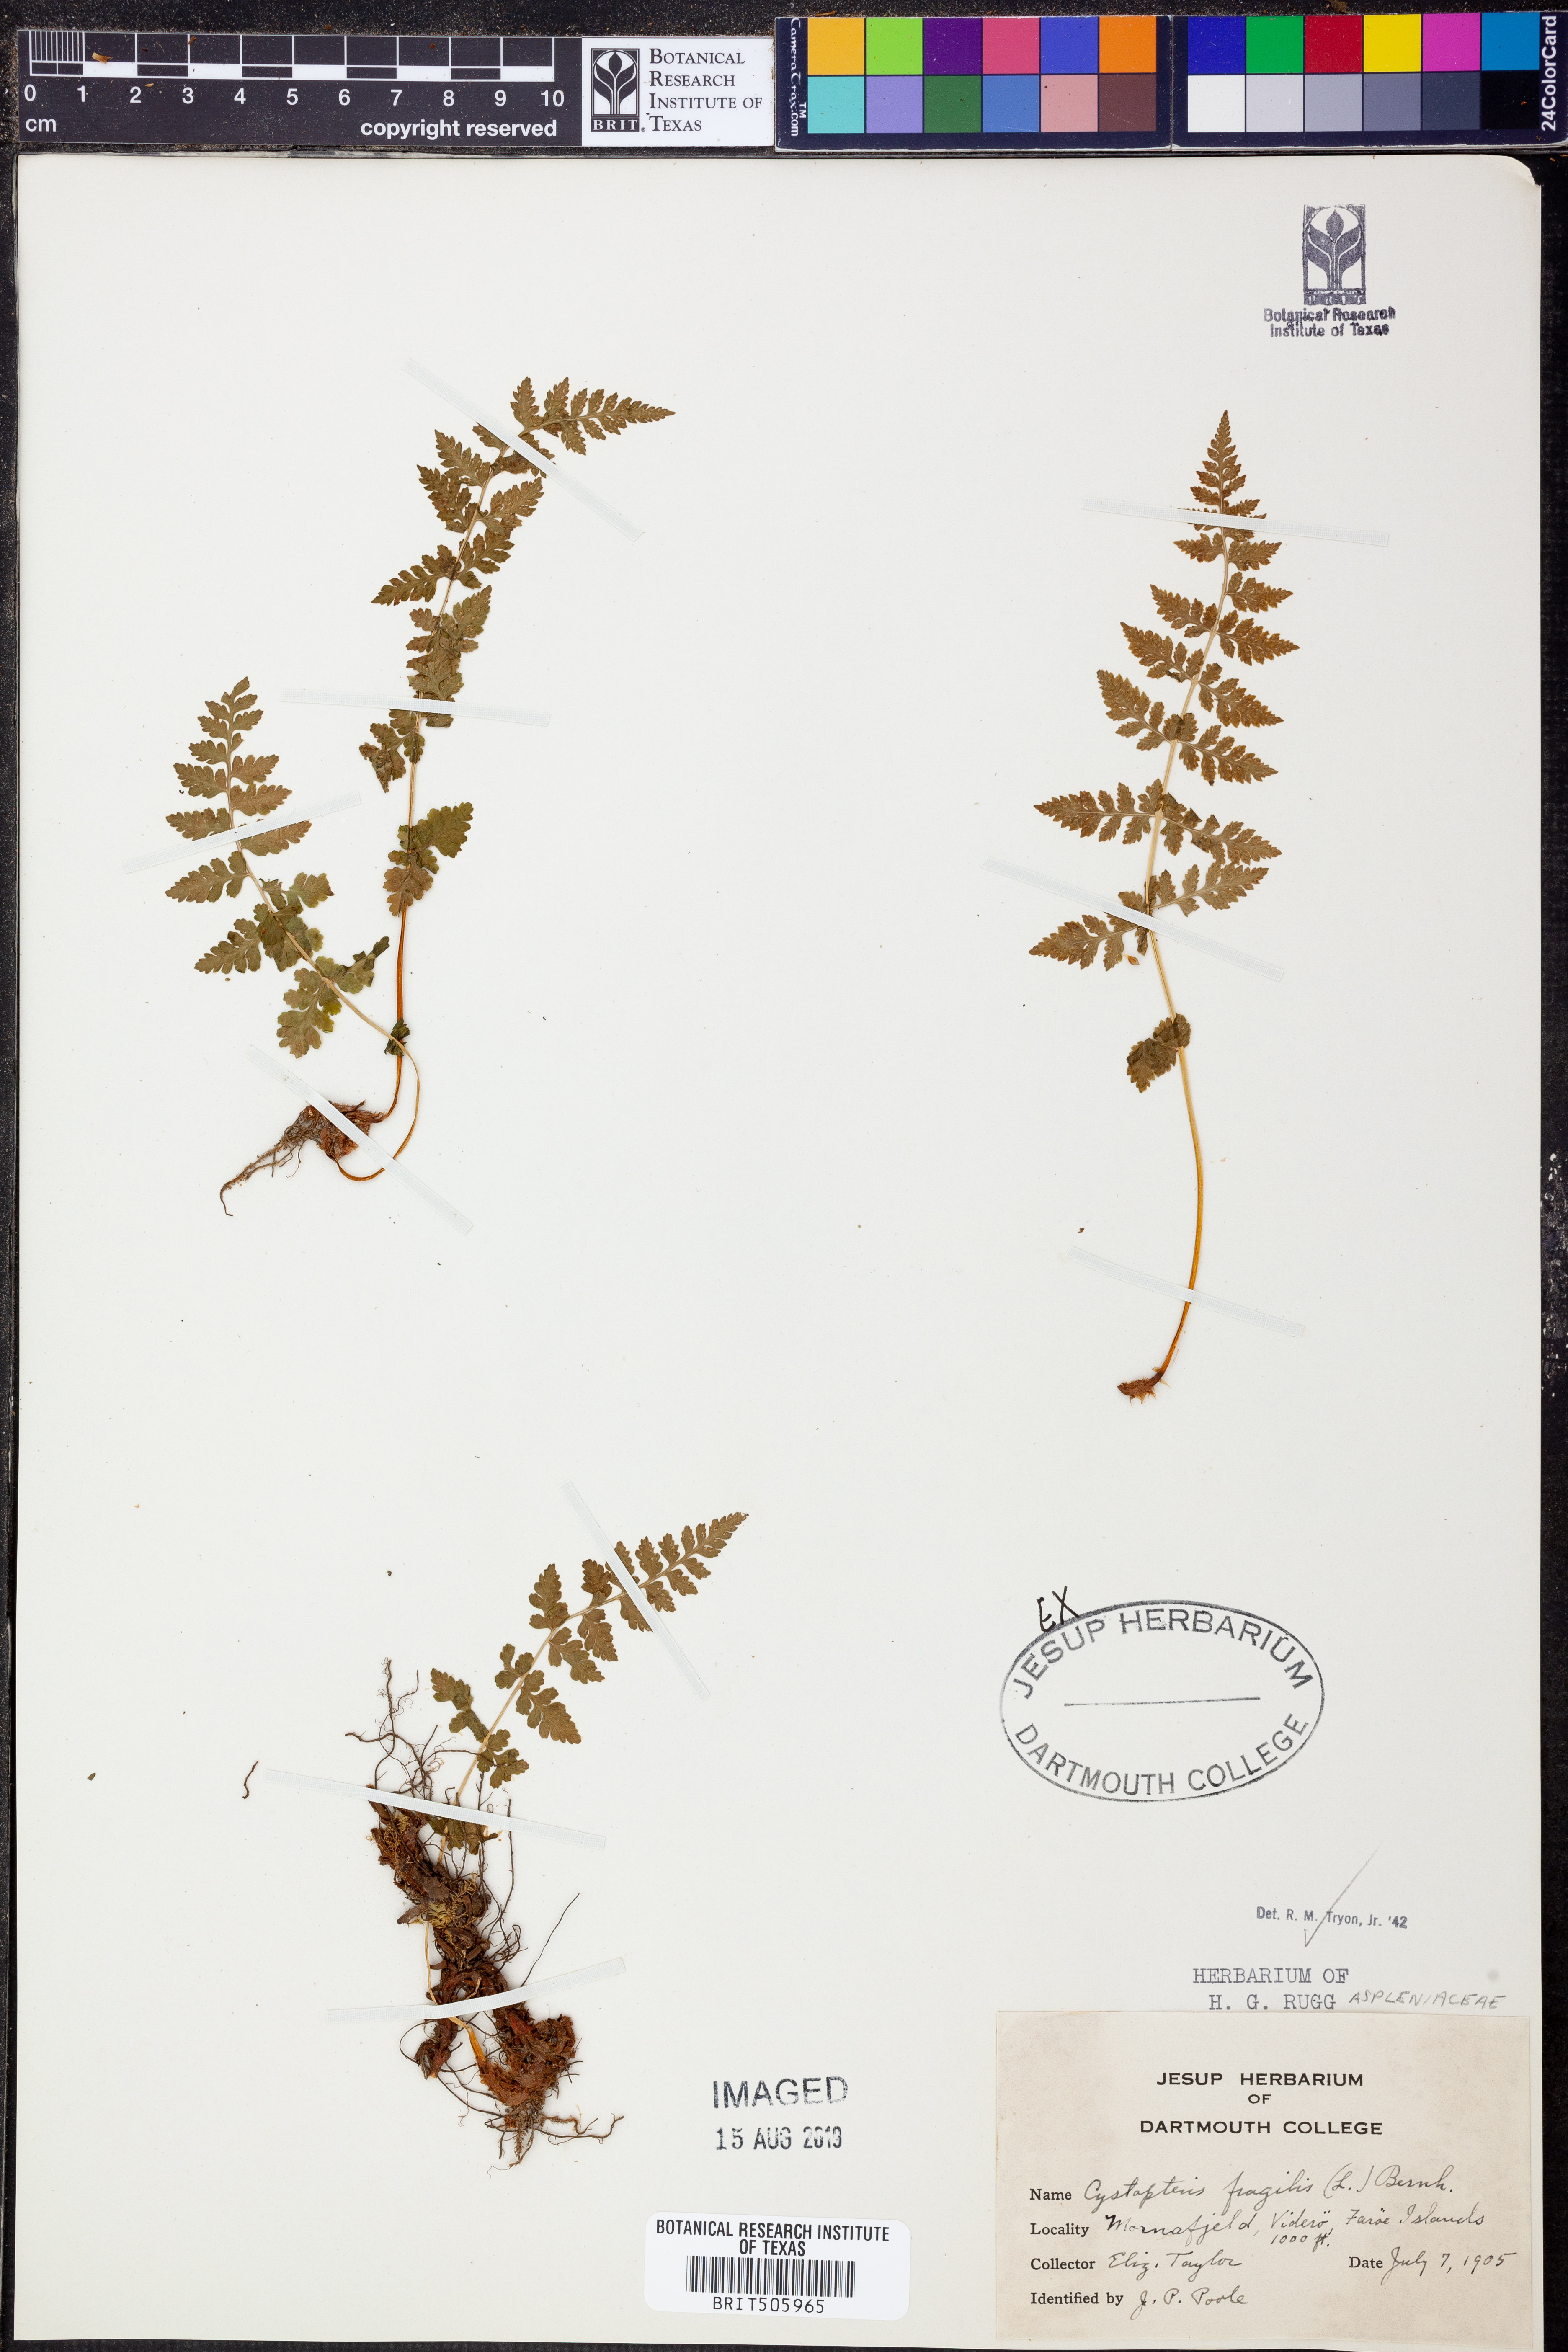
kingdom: Plantae
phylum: Tracheophyta
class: Polypodiopsida
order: Polypodiales
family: Cystopteridaceae
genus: Cystopteris
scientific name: Cystopteris fragilis
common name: Brittle bladder fern
